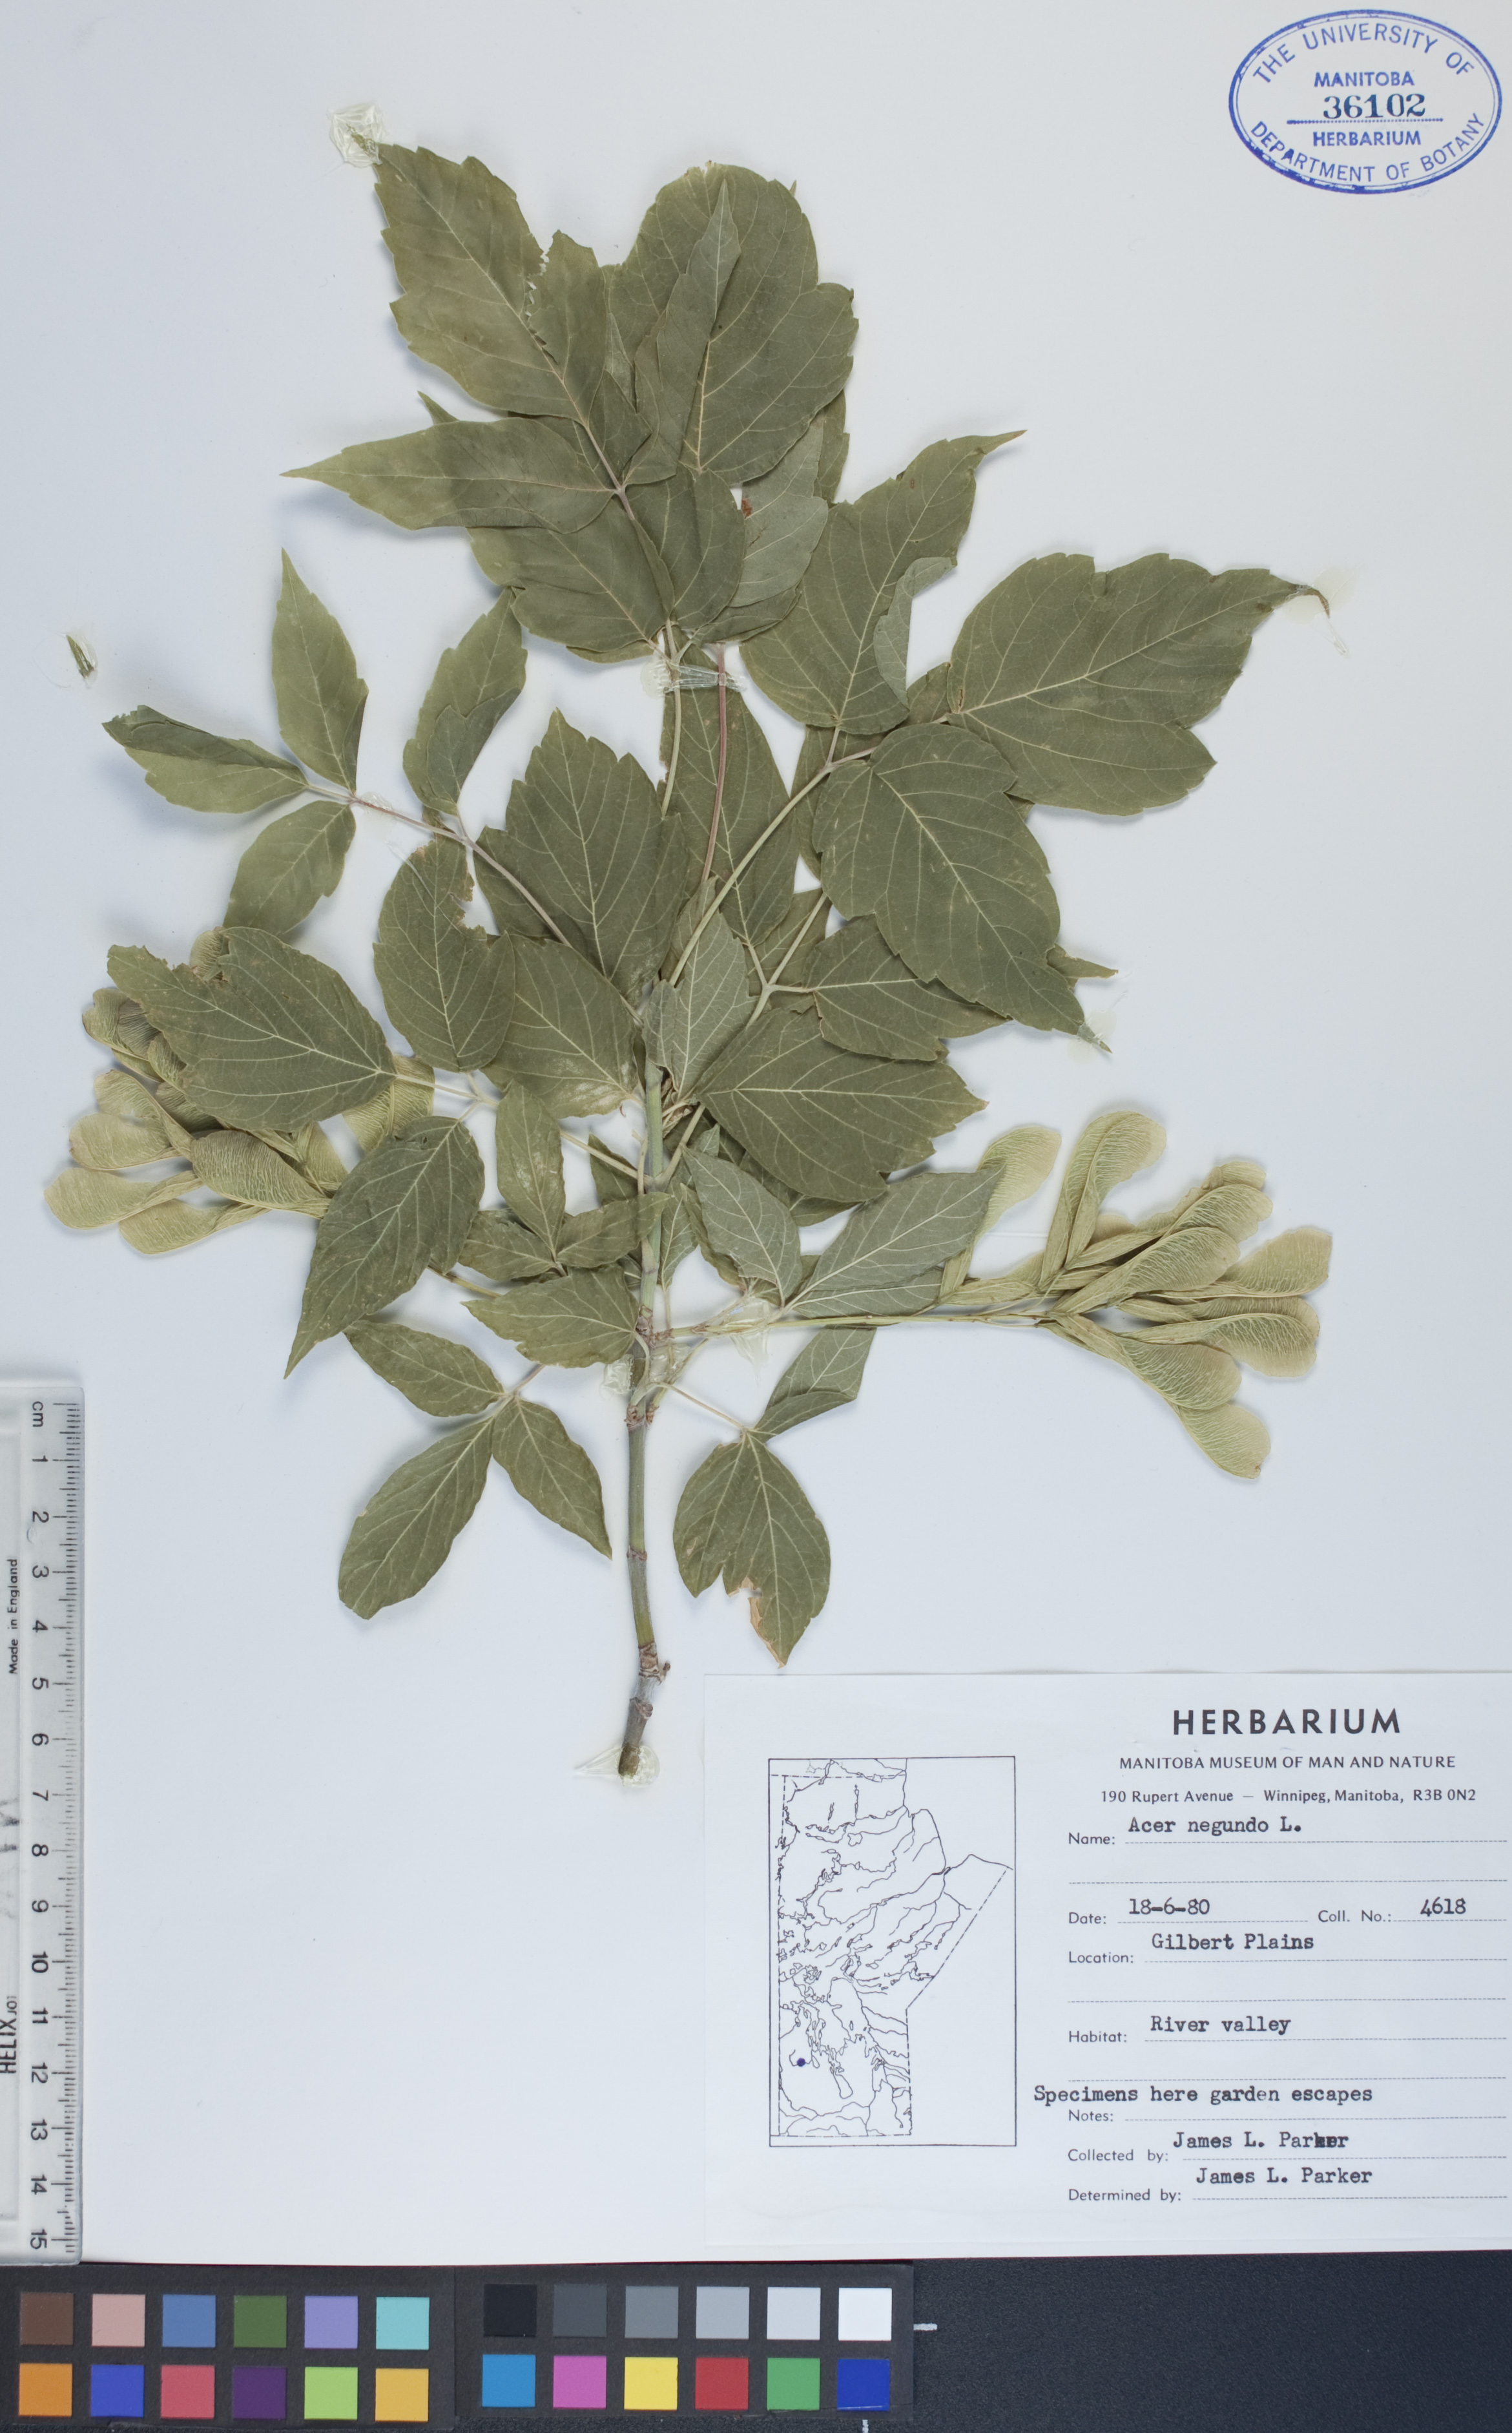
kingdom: Plantae
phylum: Tracheophyta
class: Magnoliopsida
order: Sapindales
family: Sapindaceae
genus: Acer
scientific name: Acer negundo
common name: Ashleaf maple
